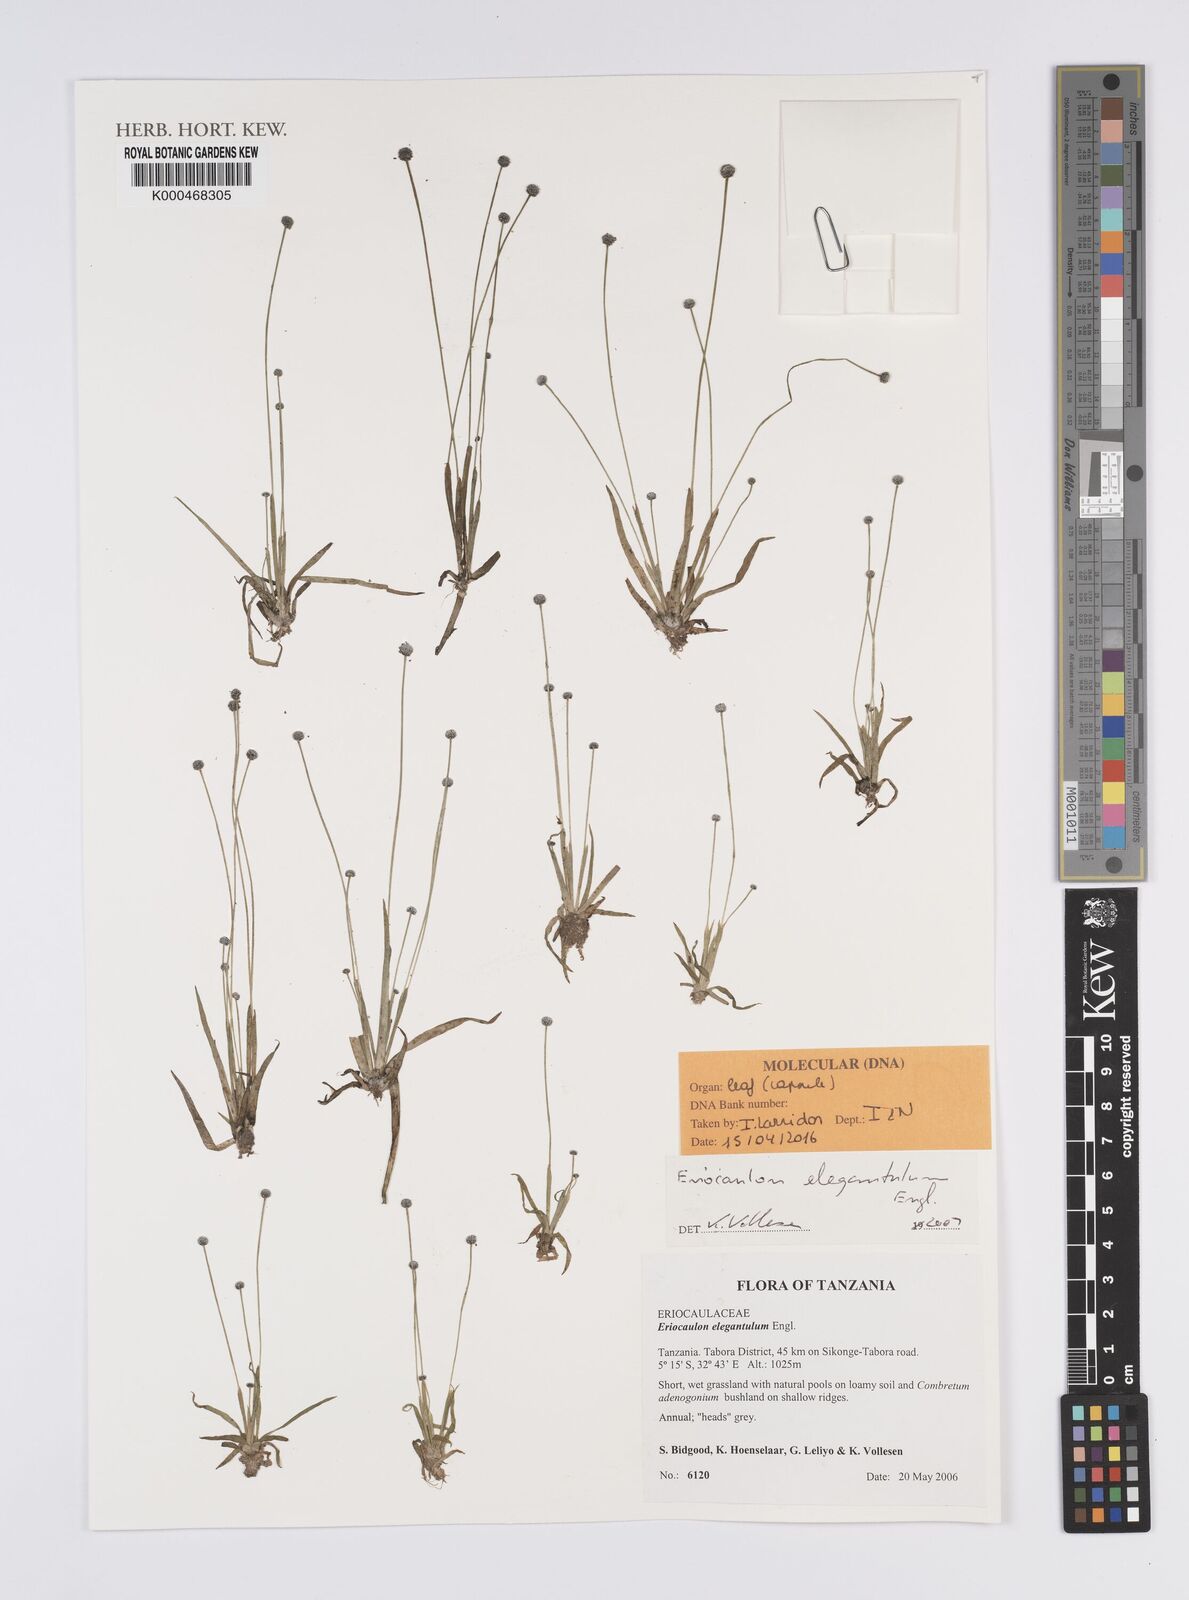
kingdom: Plantae
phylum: Tracheophyta
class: Liliopsida
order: Poales
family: Eriocaulaceae
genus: Eriocaulon
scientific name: Eriocaulon elegantulum
